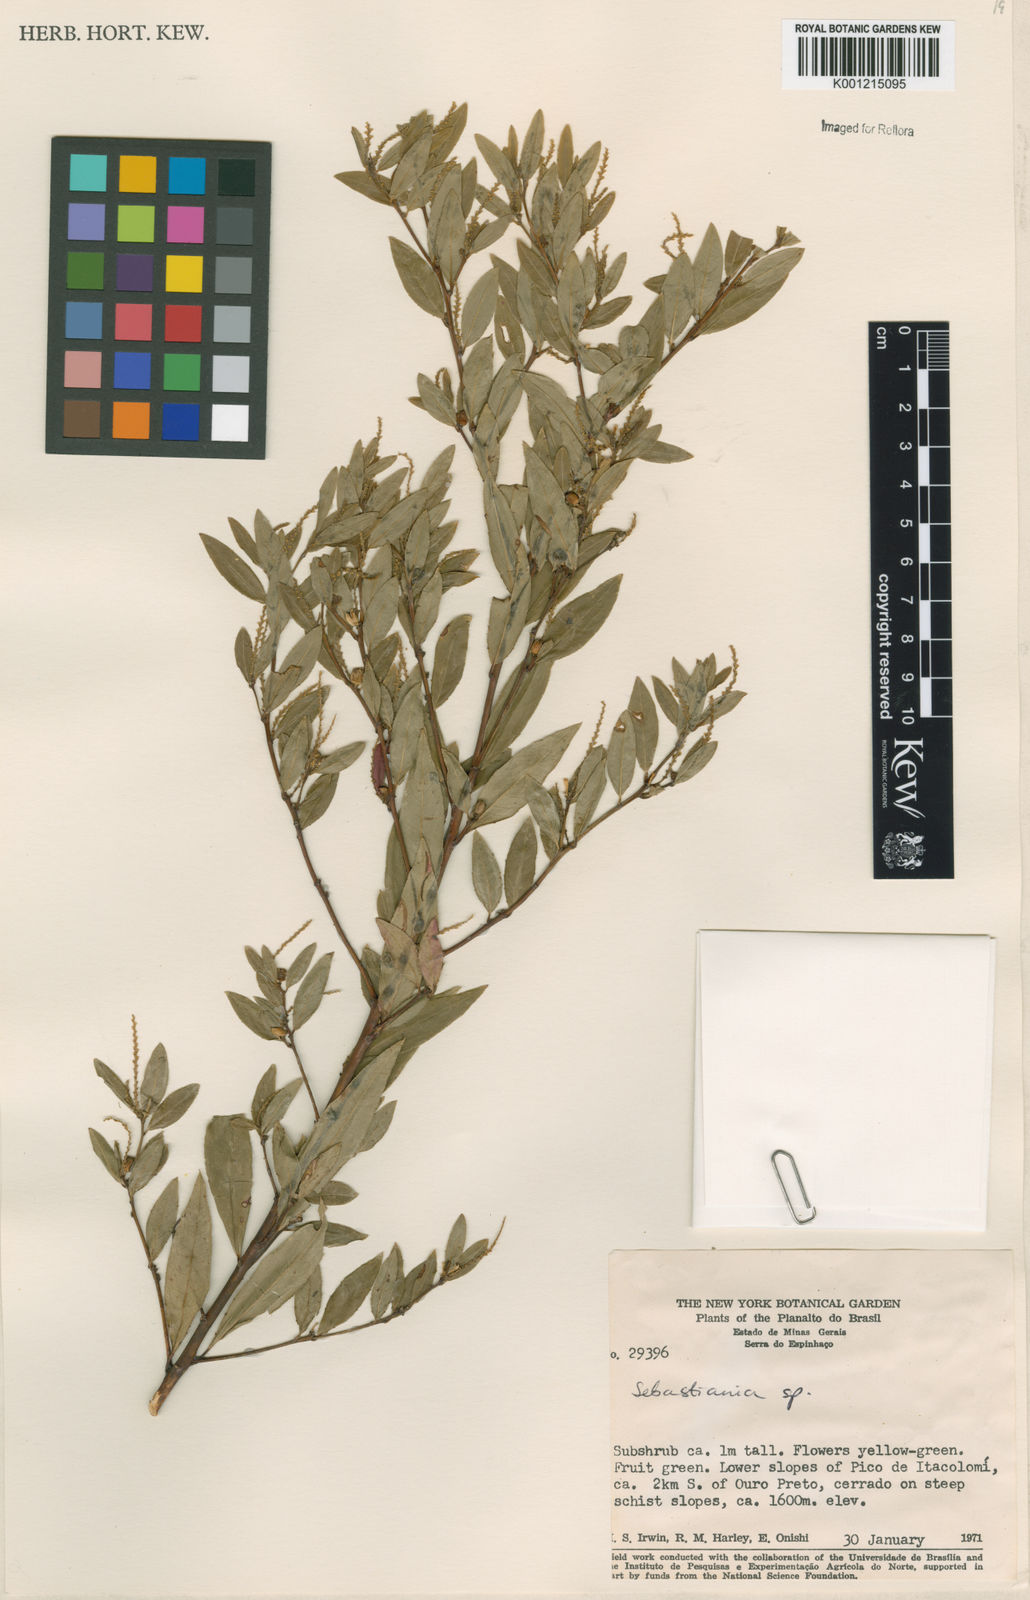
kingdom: Plantae
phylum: Tracheophyta
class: Magnoliopsida
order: Malpighiales
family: Euphorbiaceae
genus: Sebastiania
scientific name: Sebastiania
